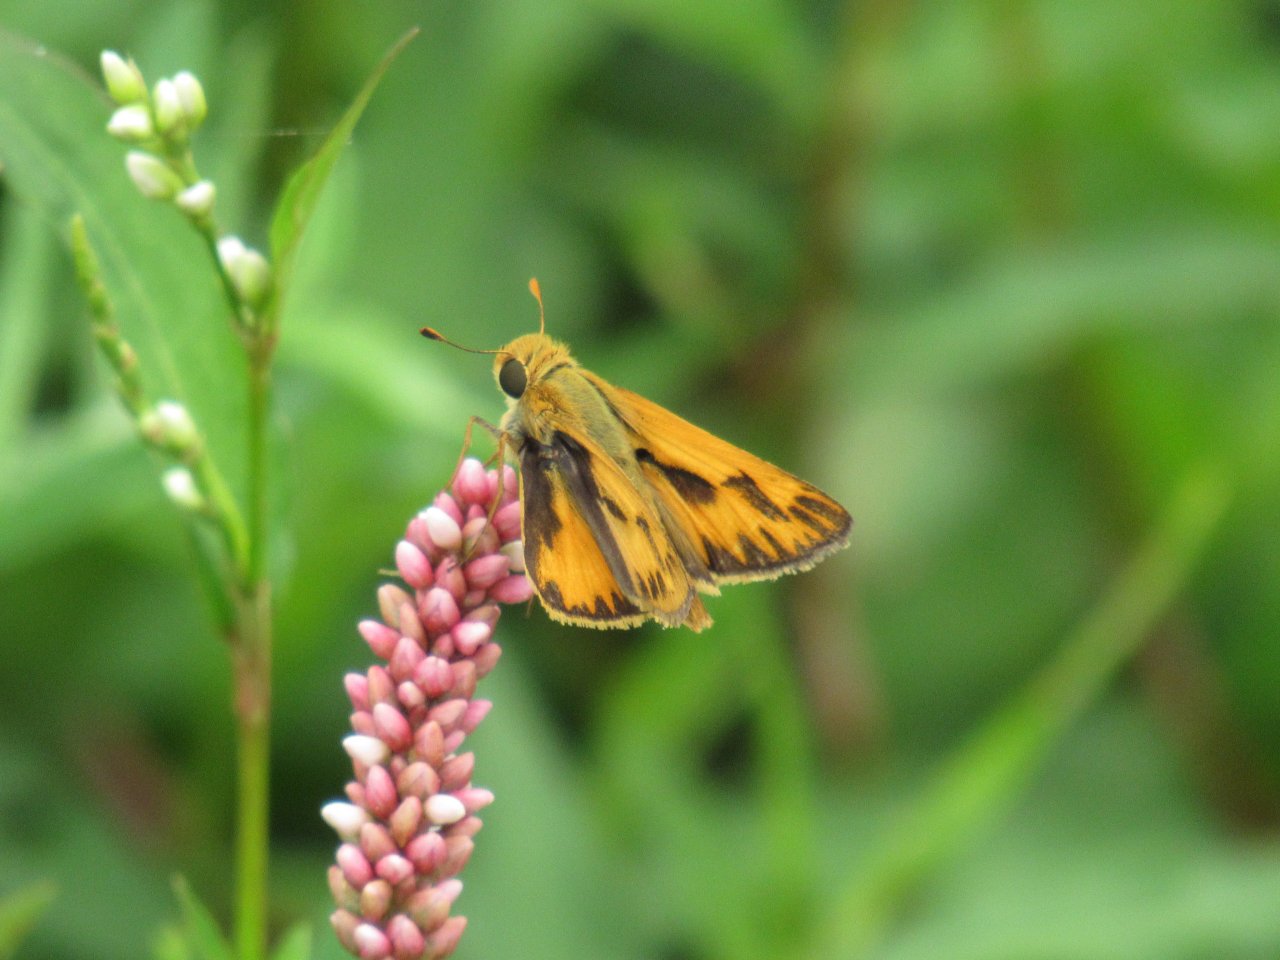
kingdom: Animalia
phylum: Arthropoda
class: Insecta
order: Lepidoptera
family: Hesperiidae
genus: Hylephila
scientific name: Hylephila phyleus
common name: Fiery Skipper
